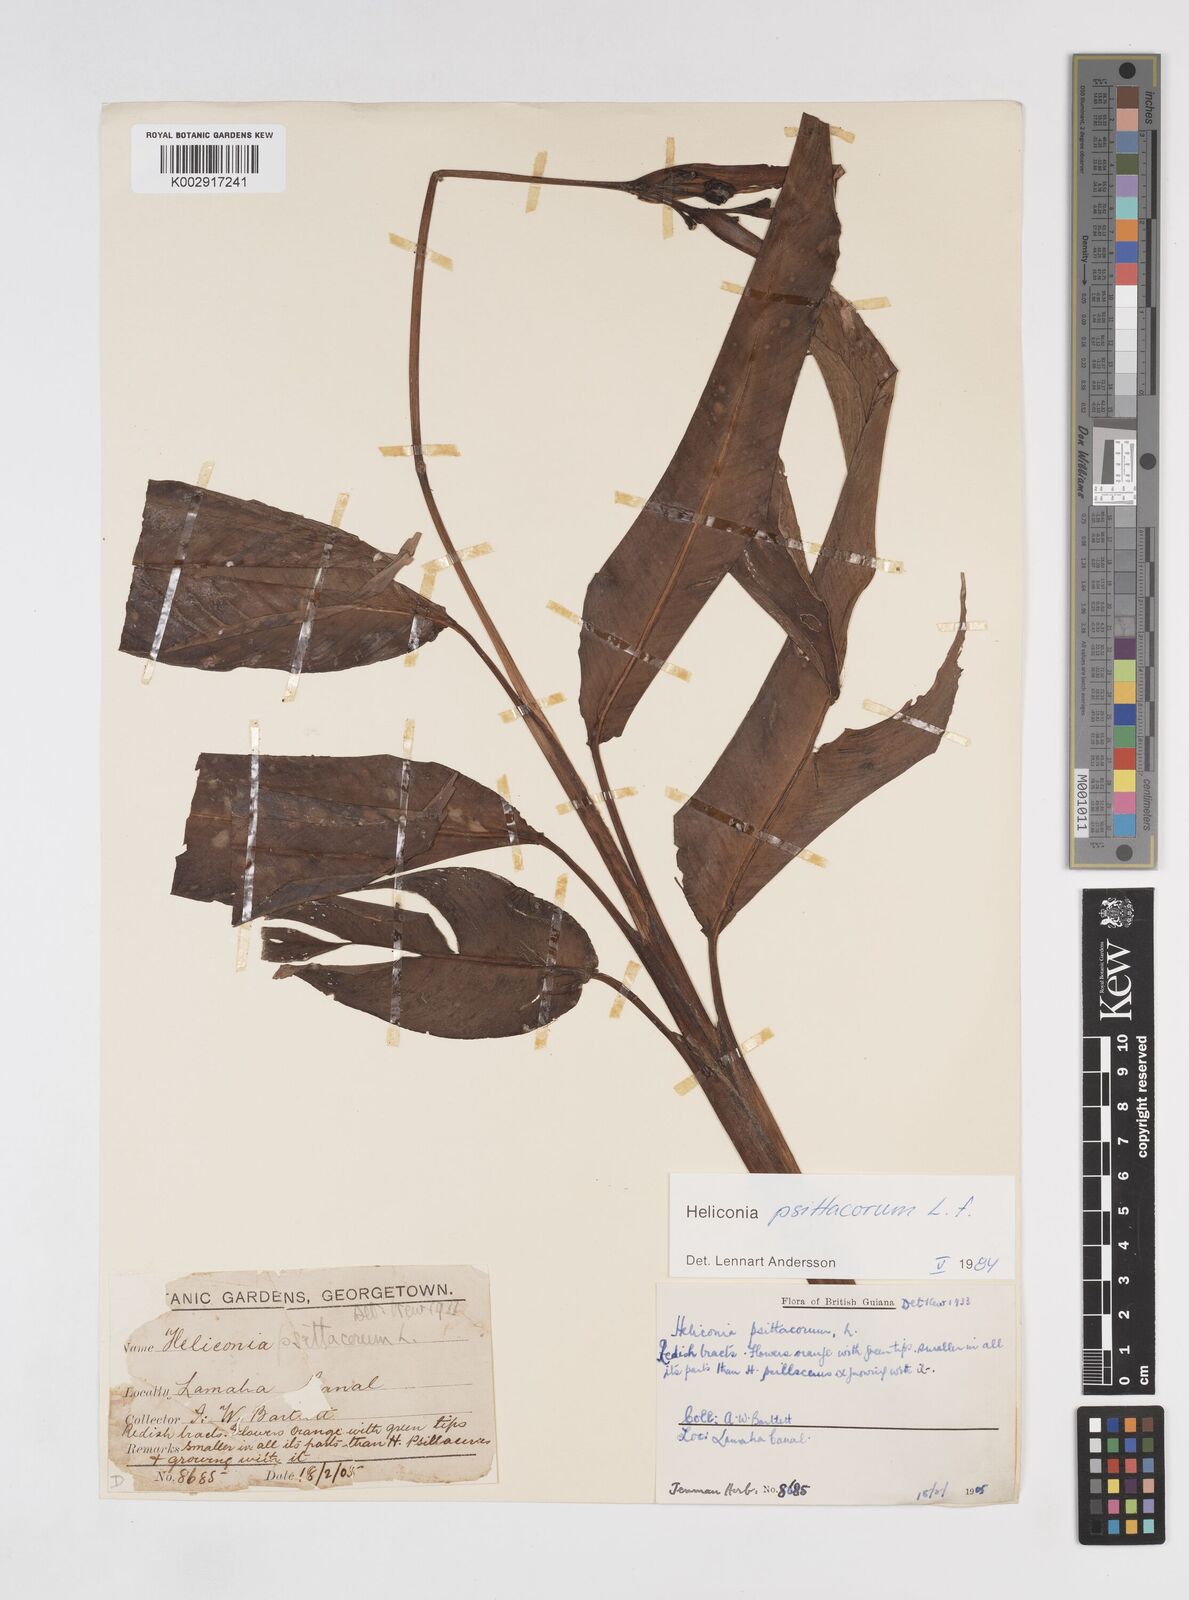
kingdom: Plantae
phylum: Tracheophyta
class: Liliopsida
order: Zingiberales
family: Heliconiaceae
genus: Heliconia
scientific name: Heliconia psittacorum
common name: Parrot's-flower
